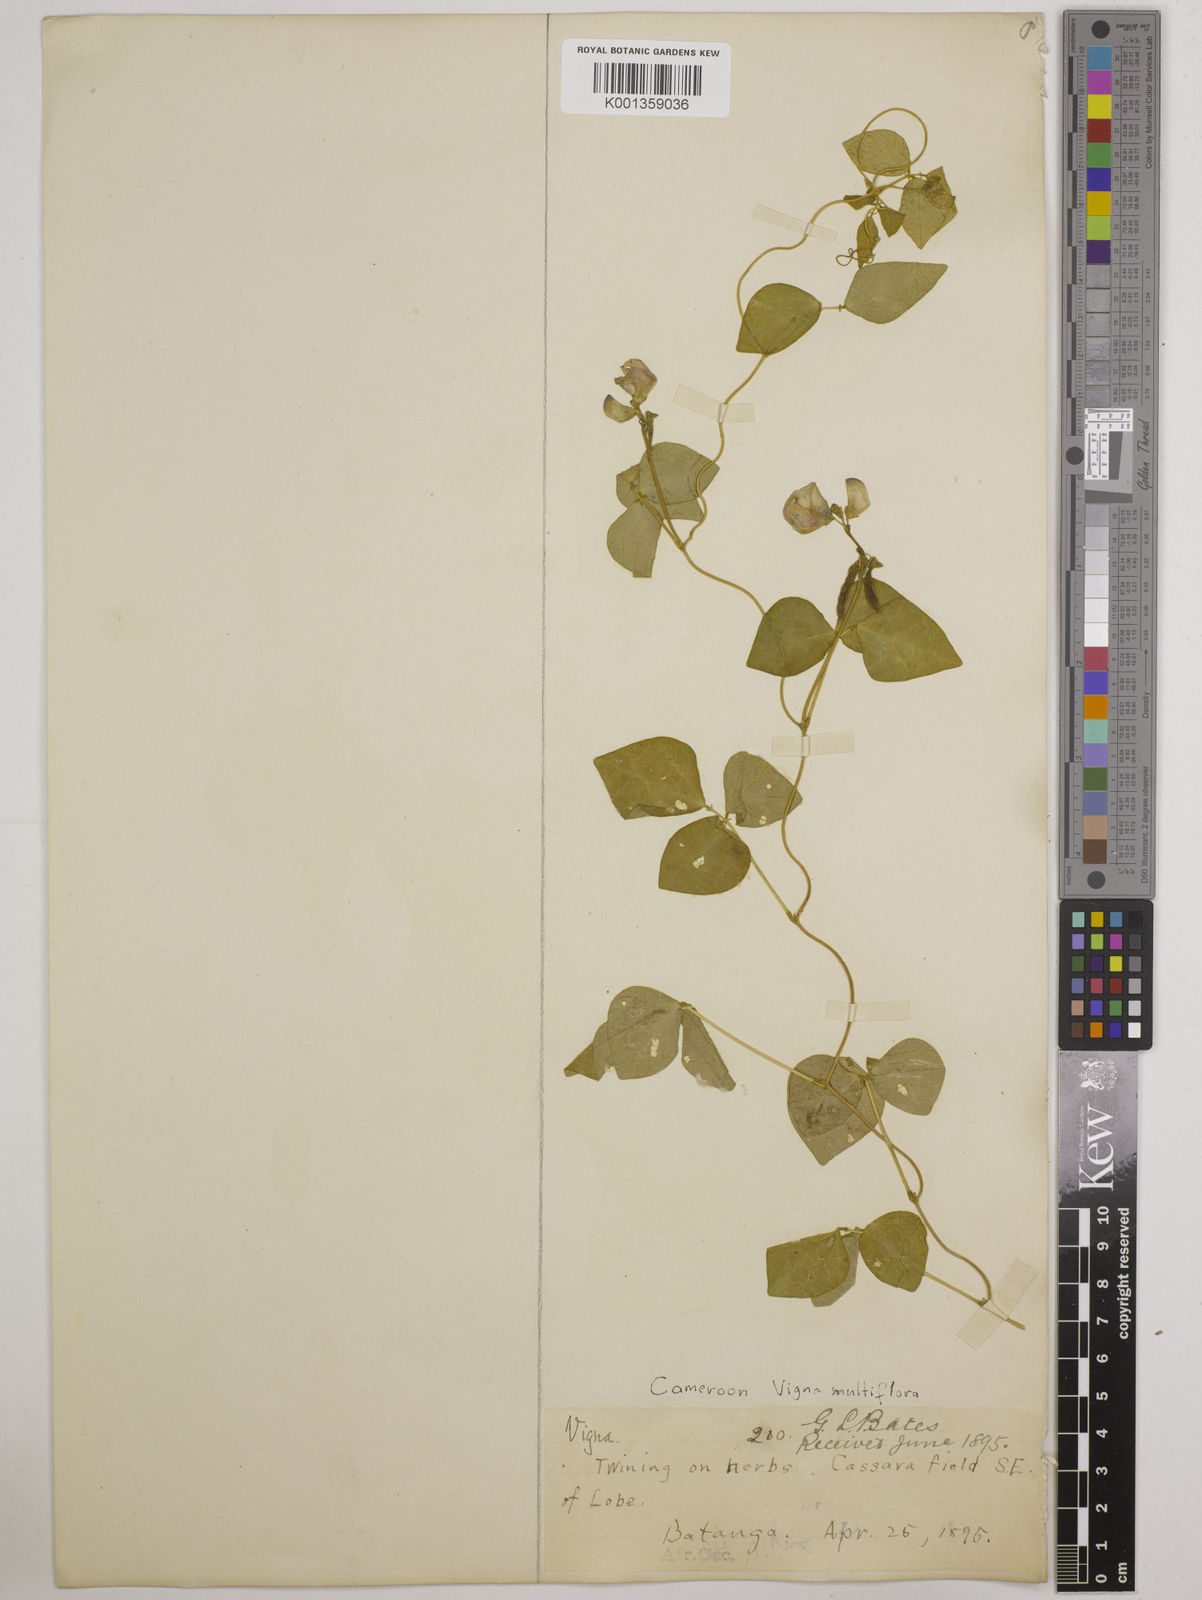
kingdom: Plantae
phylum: Tracheophyta
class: Magnoliopsida
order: Fabales
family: Fabaceae
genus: Vigna
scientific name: Vigna gracilis
